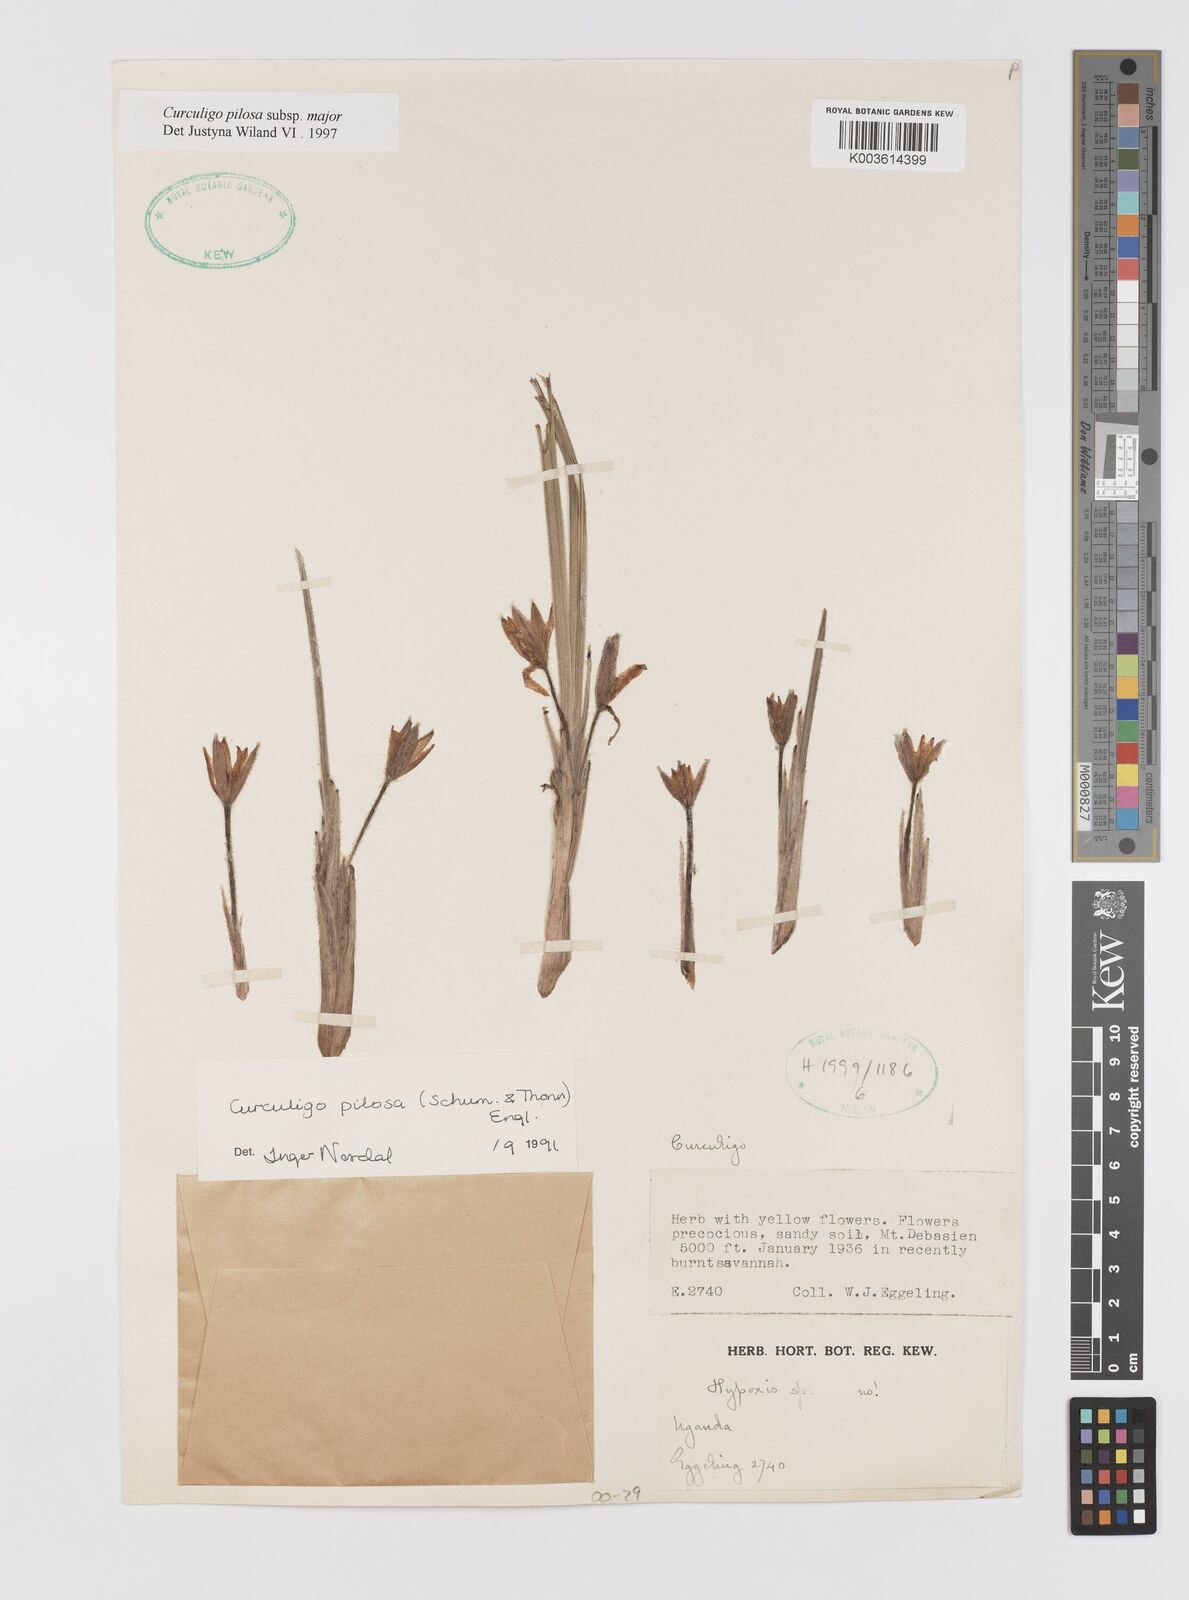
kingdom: Plantae
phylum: Tracheophyta
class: Liliopsida
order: Asparagales
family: Hypoxidaceae
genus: Curculigo
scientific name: Curculigo pilosa
